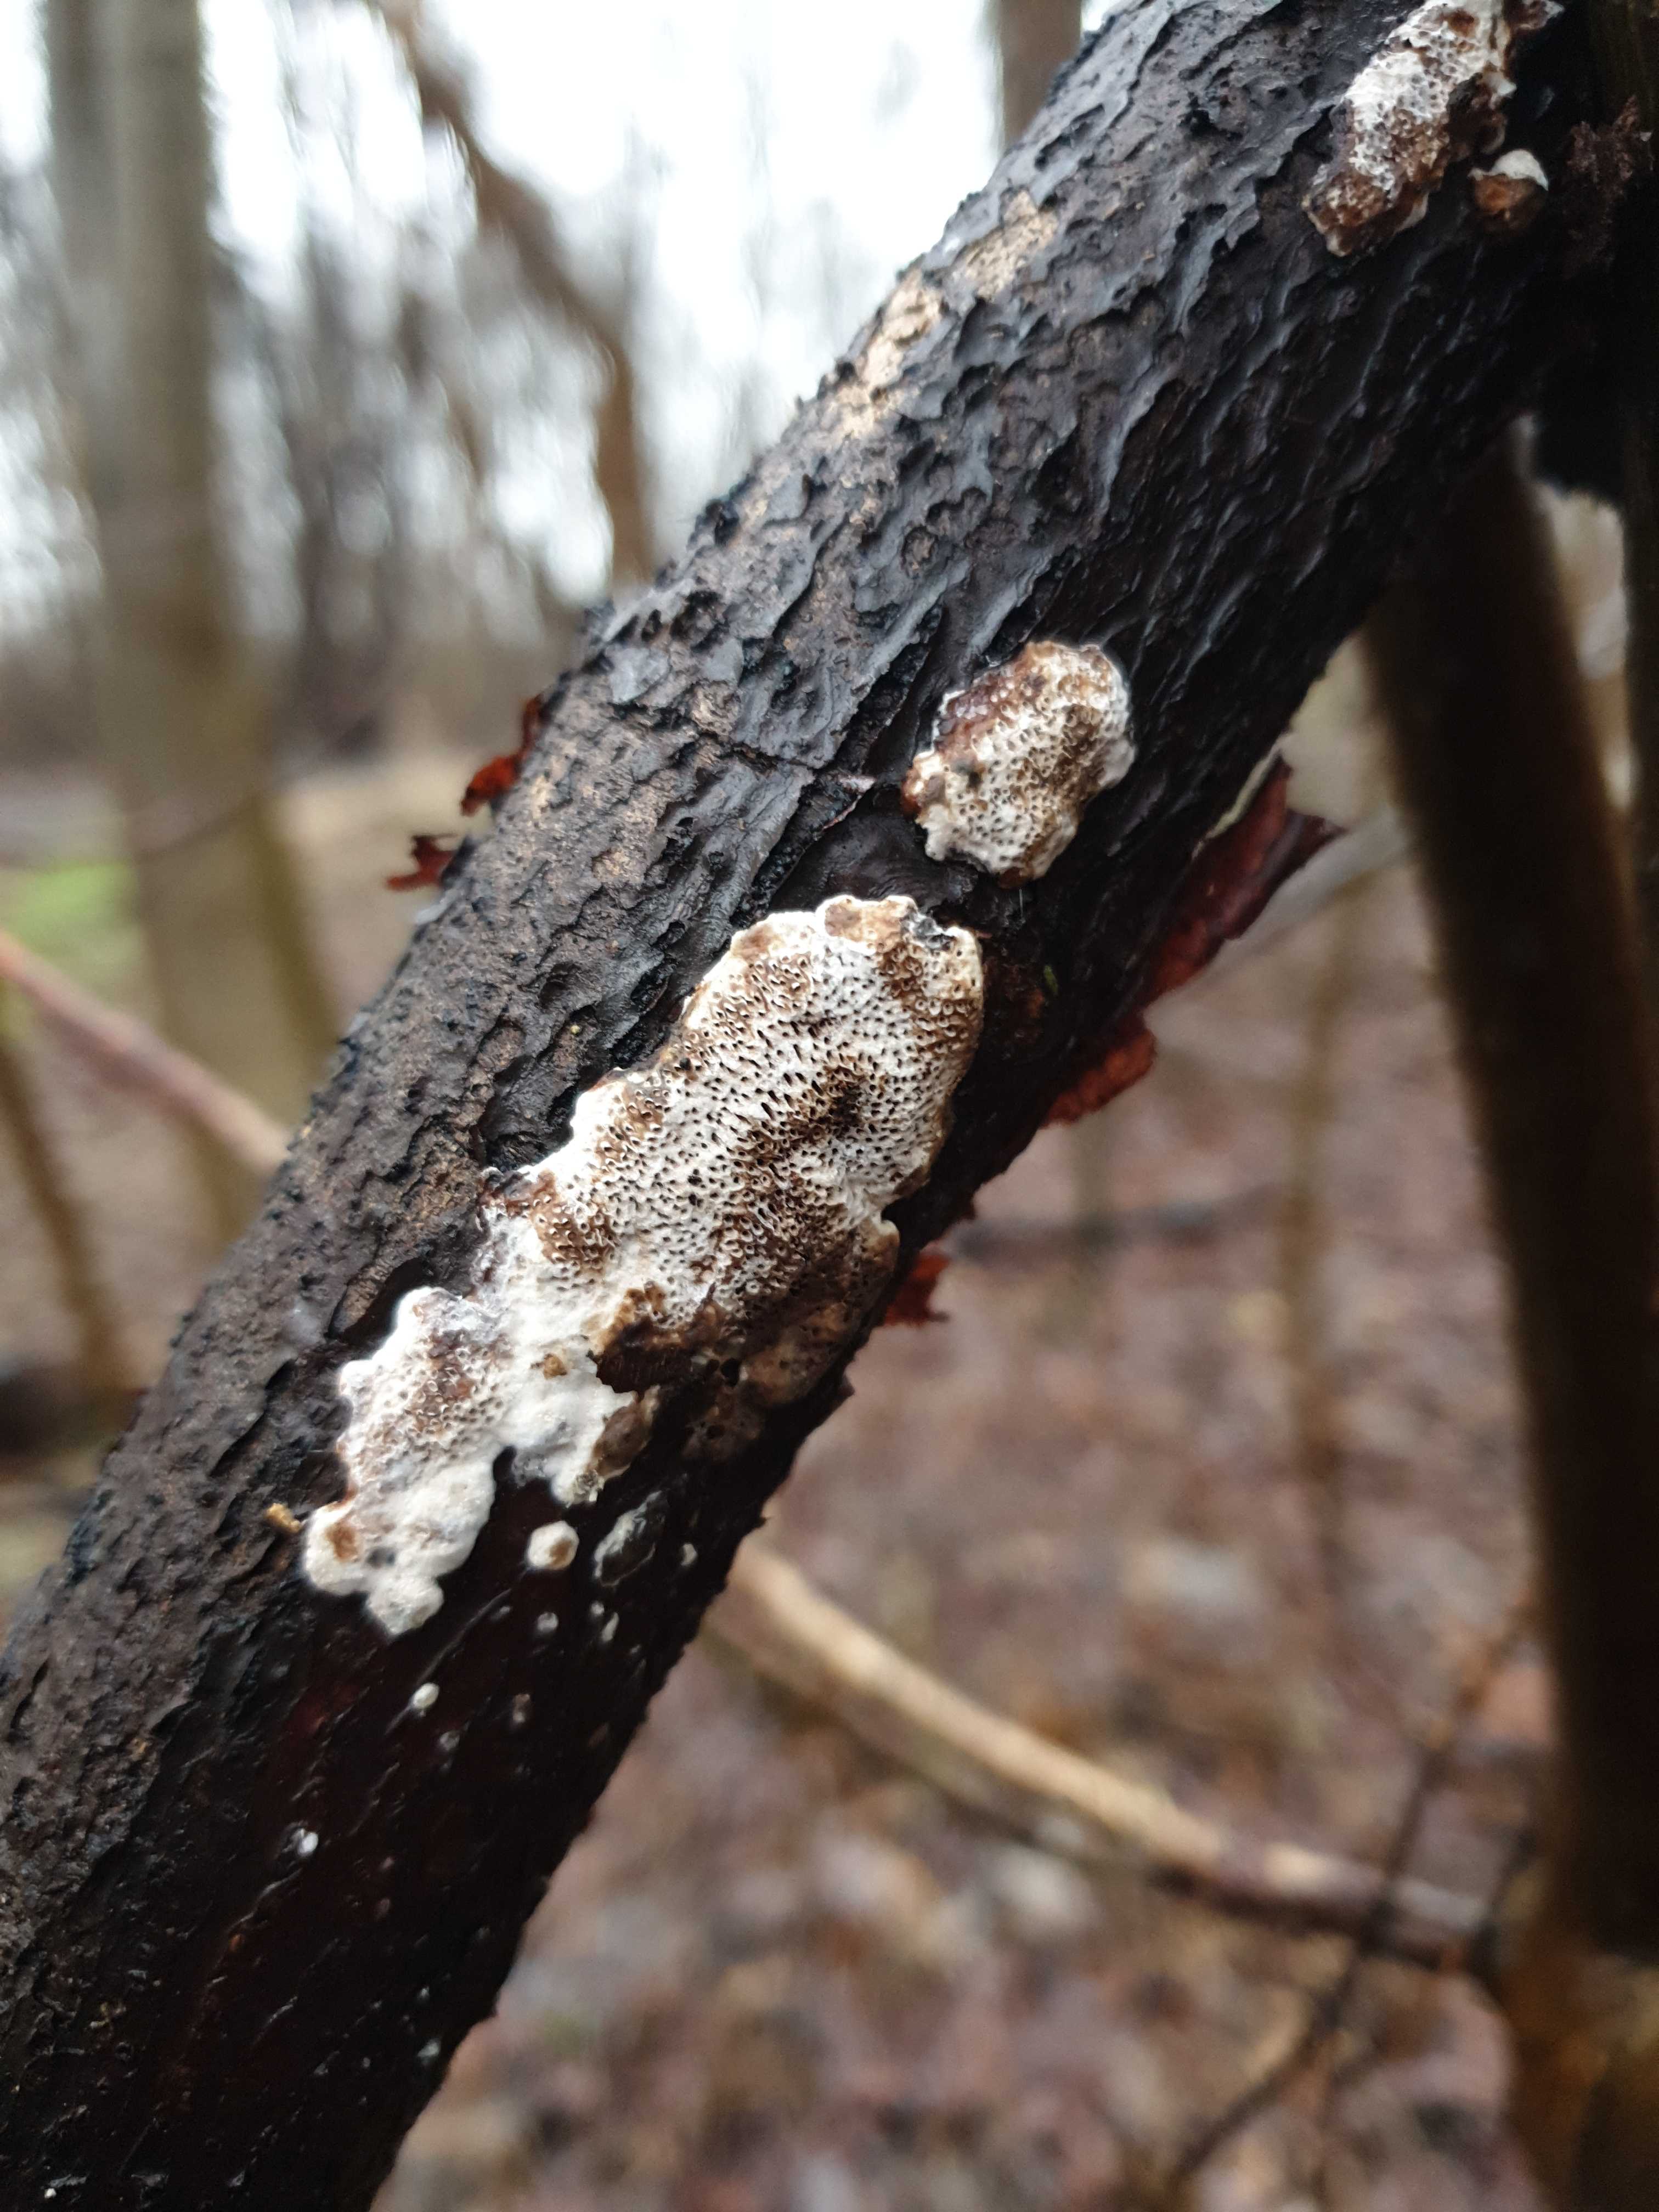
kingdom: Fungi
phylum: Basidiomycota
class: Agaricomycetes
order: Polyporales
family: Polyporaceae
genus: Podofomes
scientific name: Podofomes mollis
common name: blød begporesvamp
